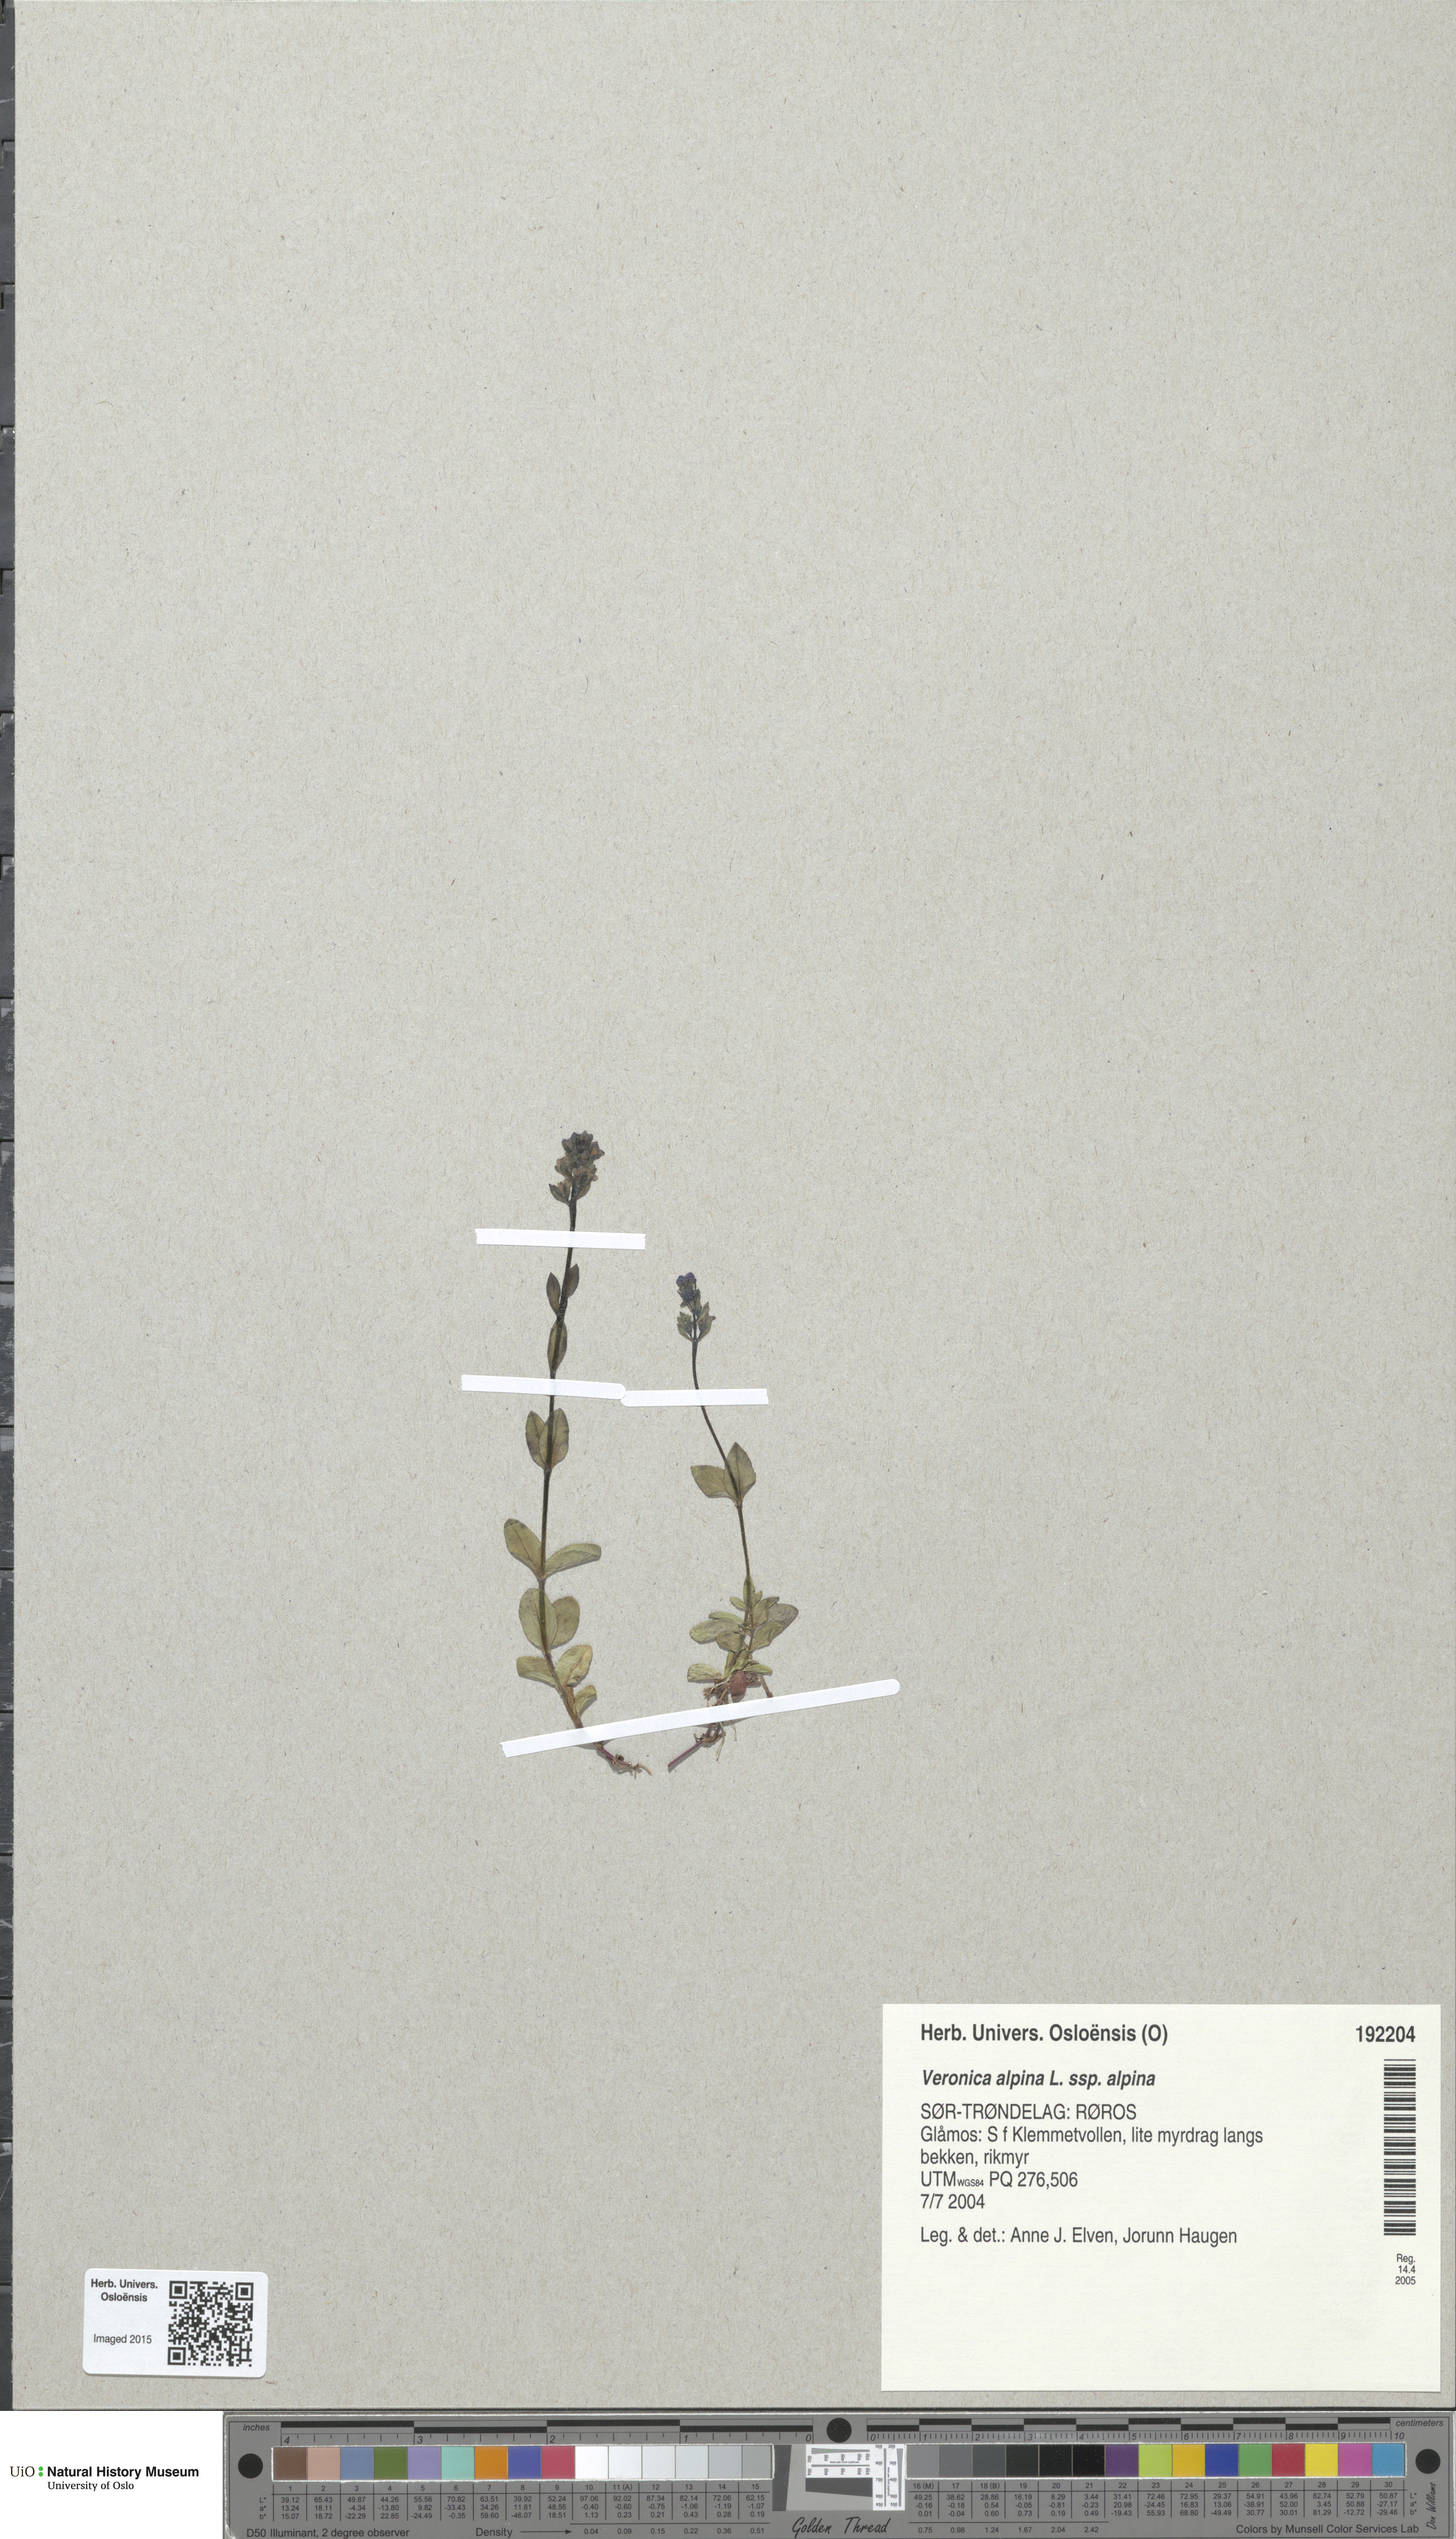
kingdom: Plantae
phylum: Tracheophyta
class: Magnoliopsida
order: Lamiales
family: Plantaginaceae
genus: Veronica
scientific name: Veronica alpina
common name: Alpine speedwell
